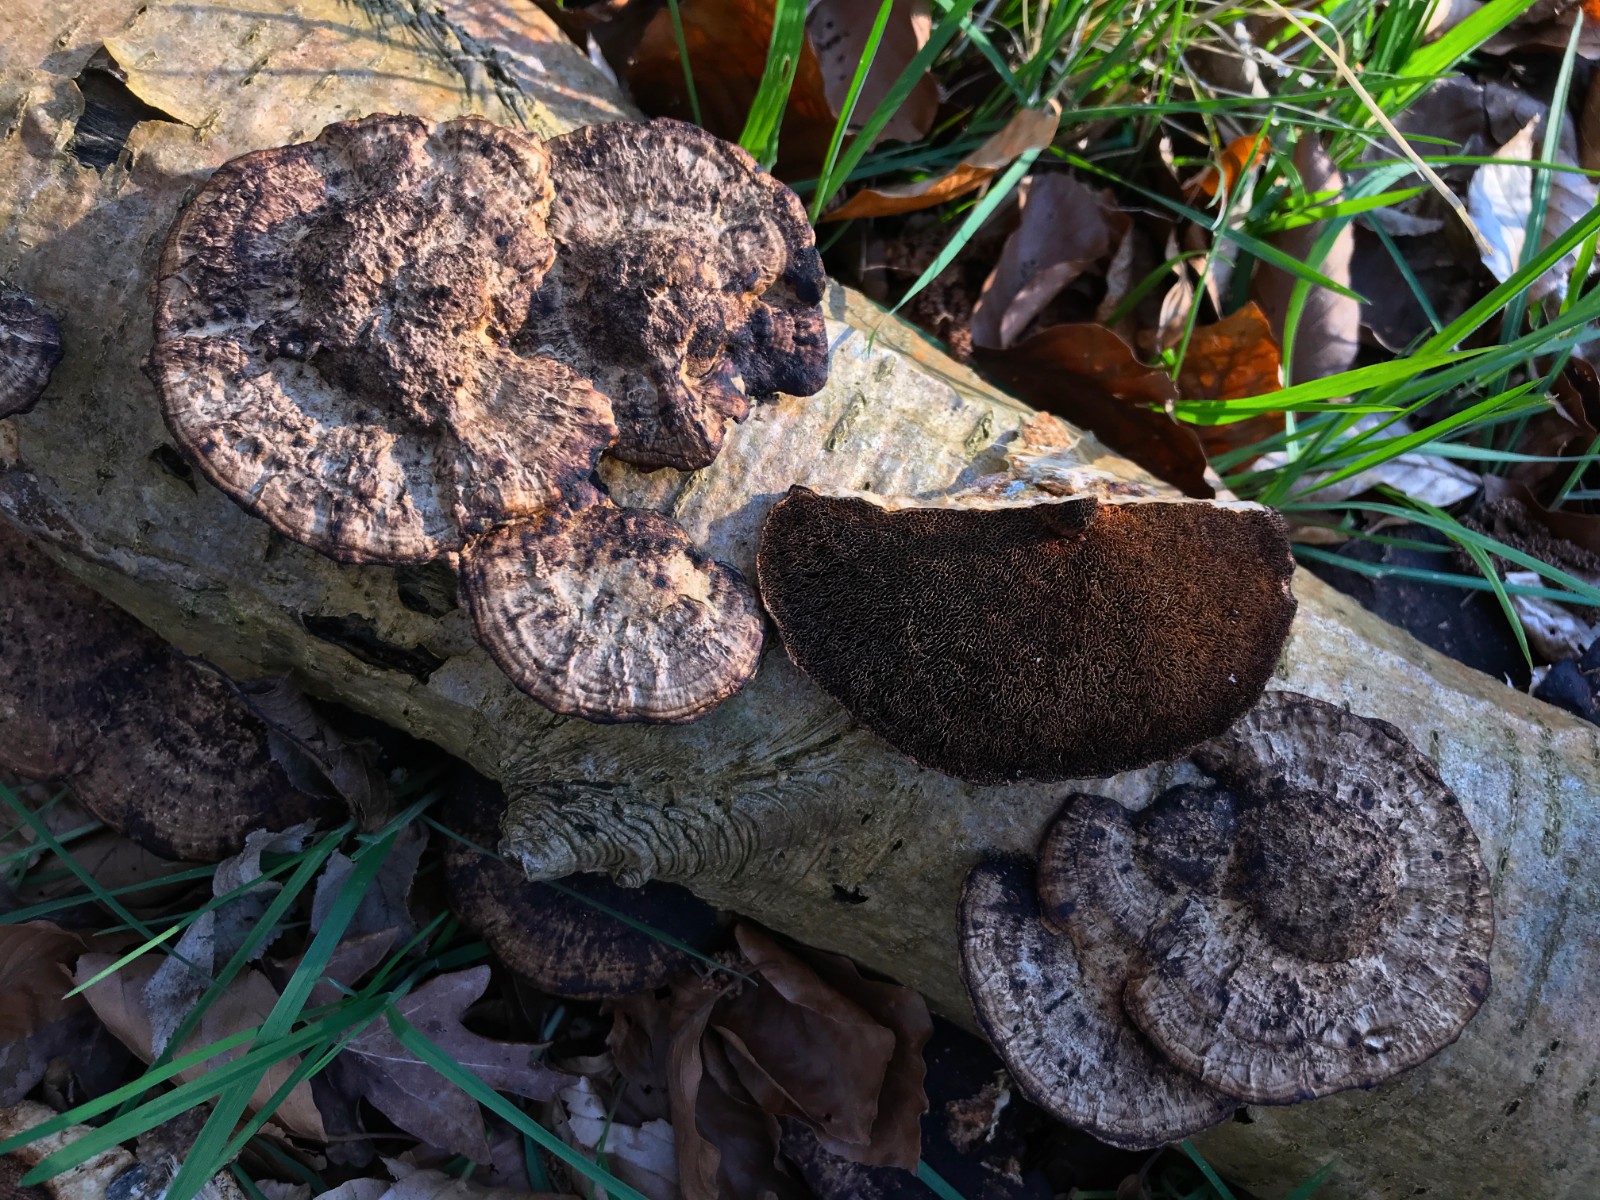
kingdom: Fungi
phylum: Basidiomycota
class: Agaricomycetes
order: Polyporales
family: Polyporaceae
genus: Daedaleopsis
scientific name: Daedaleopsis confragosa
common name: rødmende læderporesvamp
